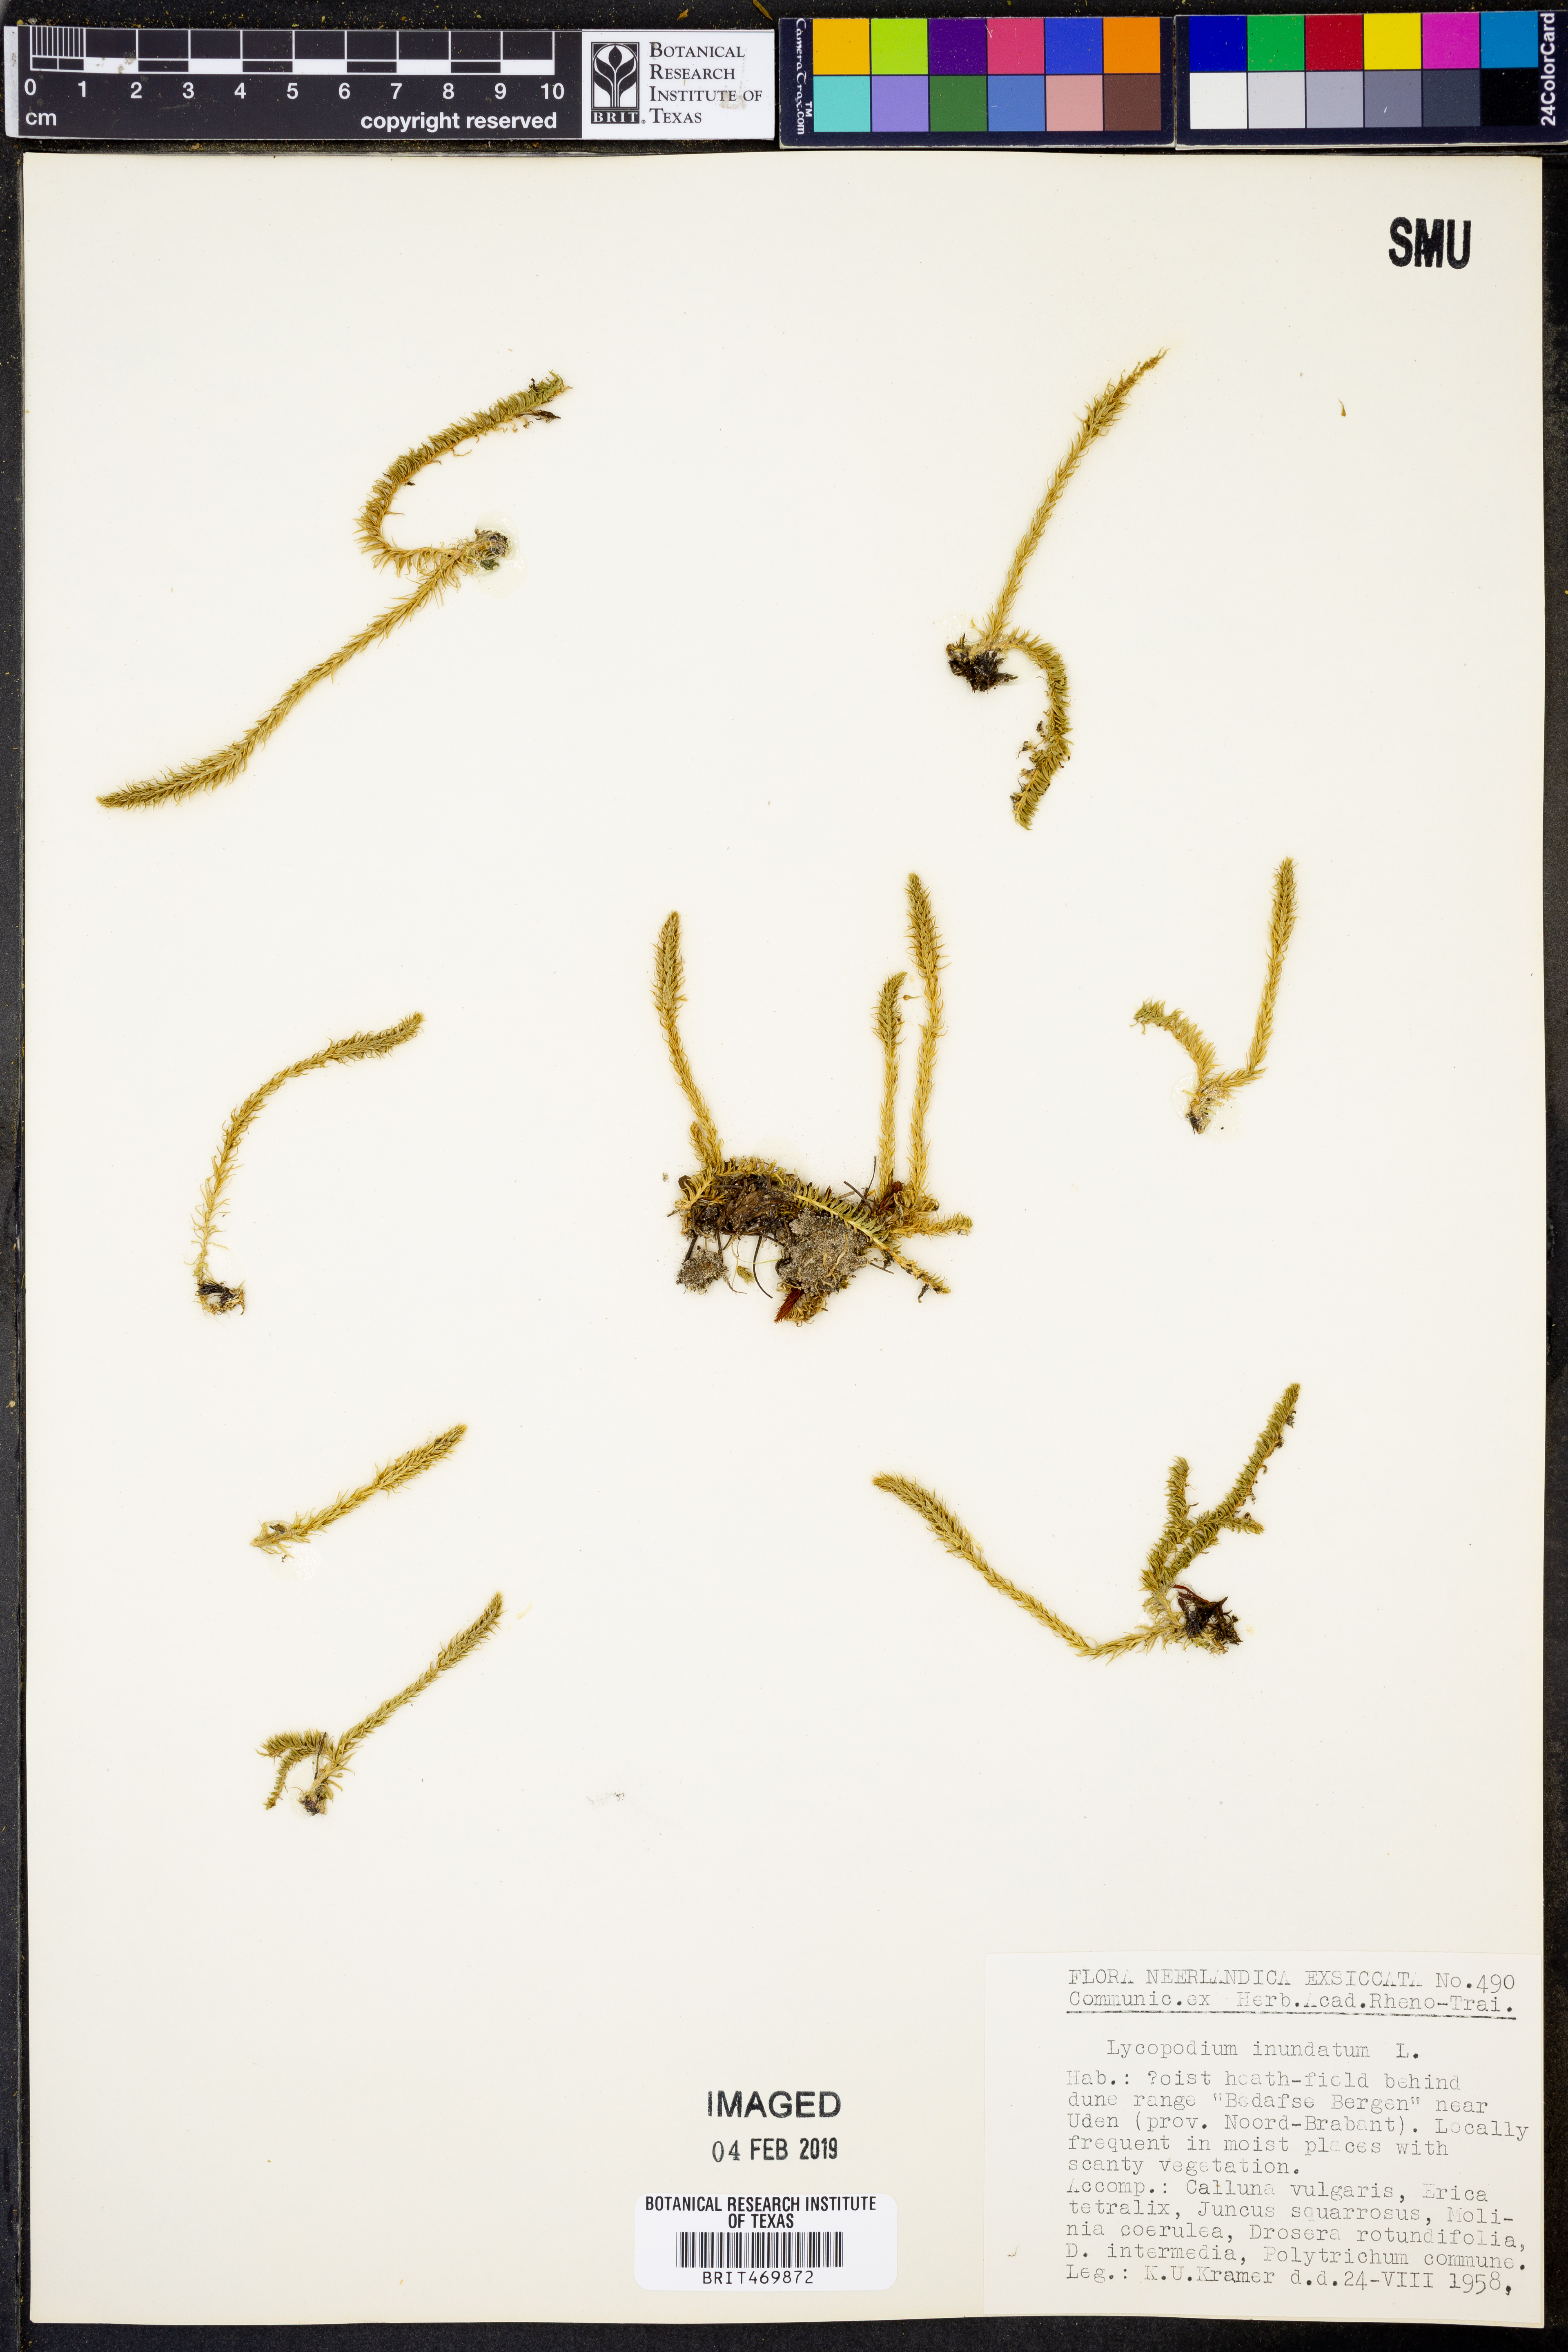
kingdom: Plantae
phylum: Tracheophyta
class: Lycopodiopsida
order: Lycopodiales
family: Lycopodiaceae
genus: Lycopodiella
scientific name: Lycopodiella inundata
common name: Marsh clubmoss
